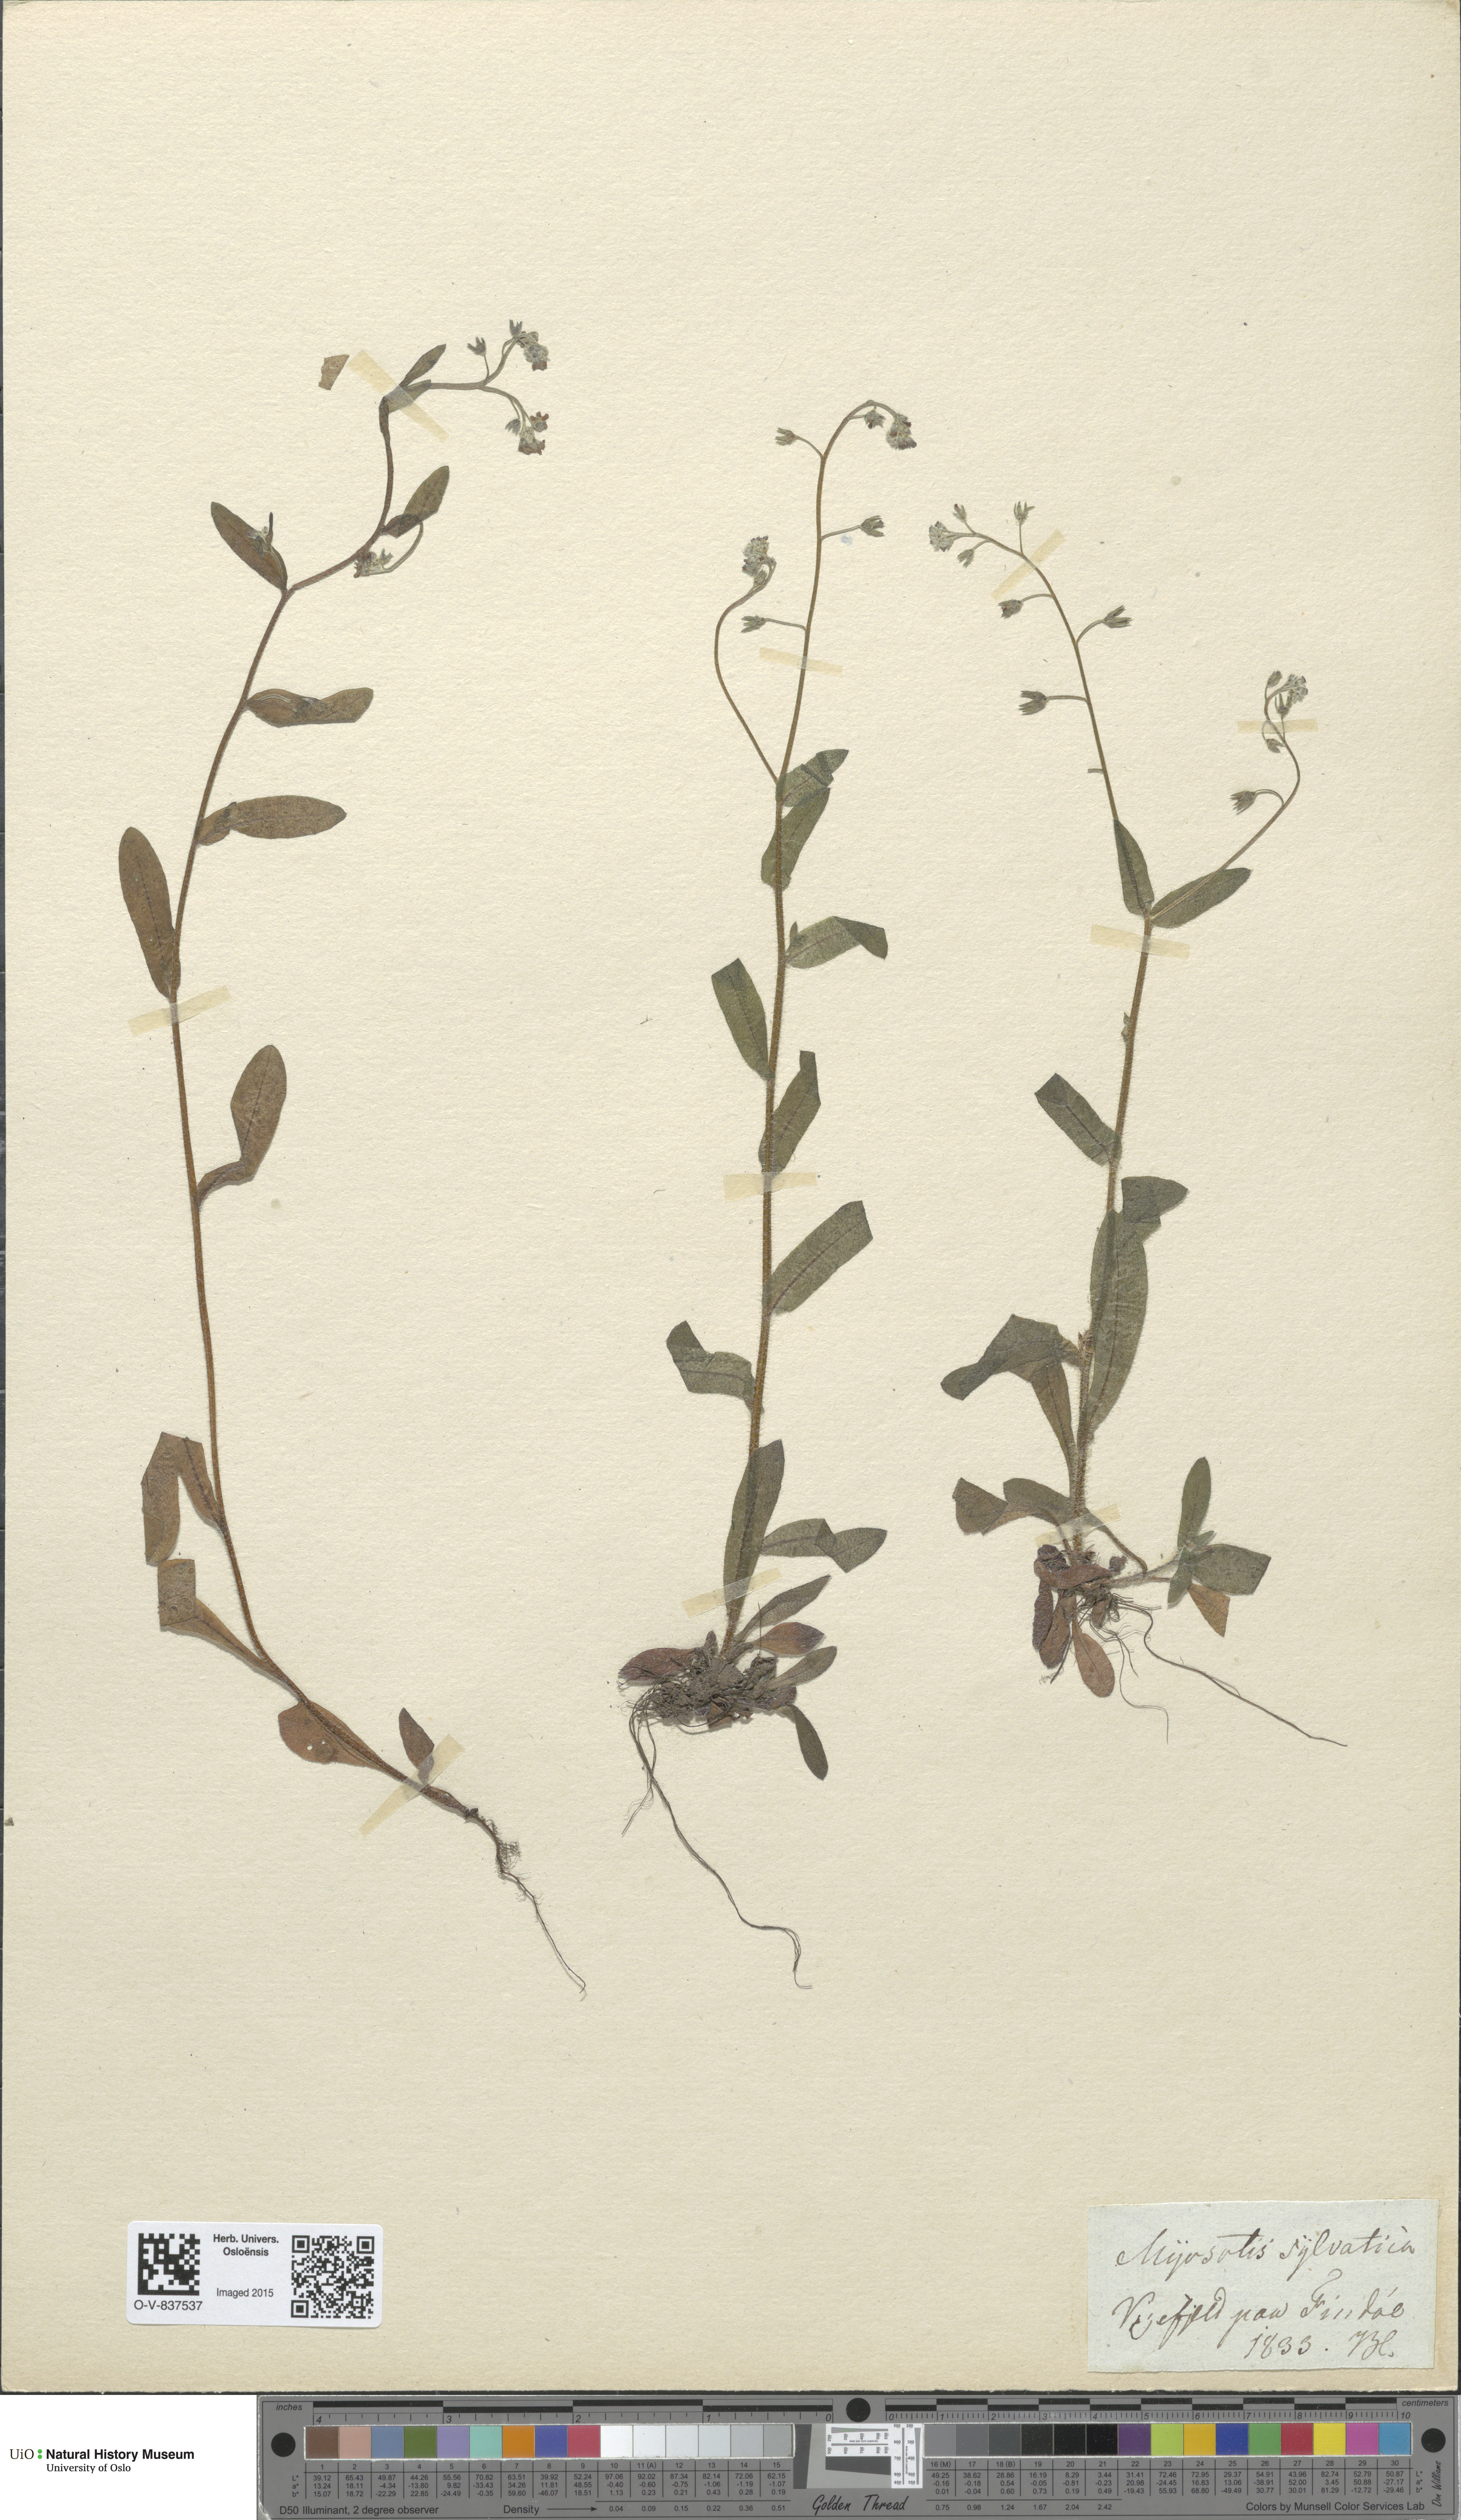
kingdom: Plantae
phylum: Tracheophyta
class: Magnoliopsida
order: Boraginales
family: Boraginaceae
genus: Myosotis
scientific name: Myosotis sylvatica
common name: Wood forget-me-not
